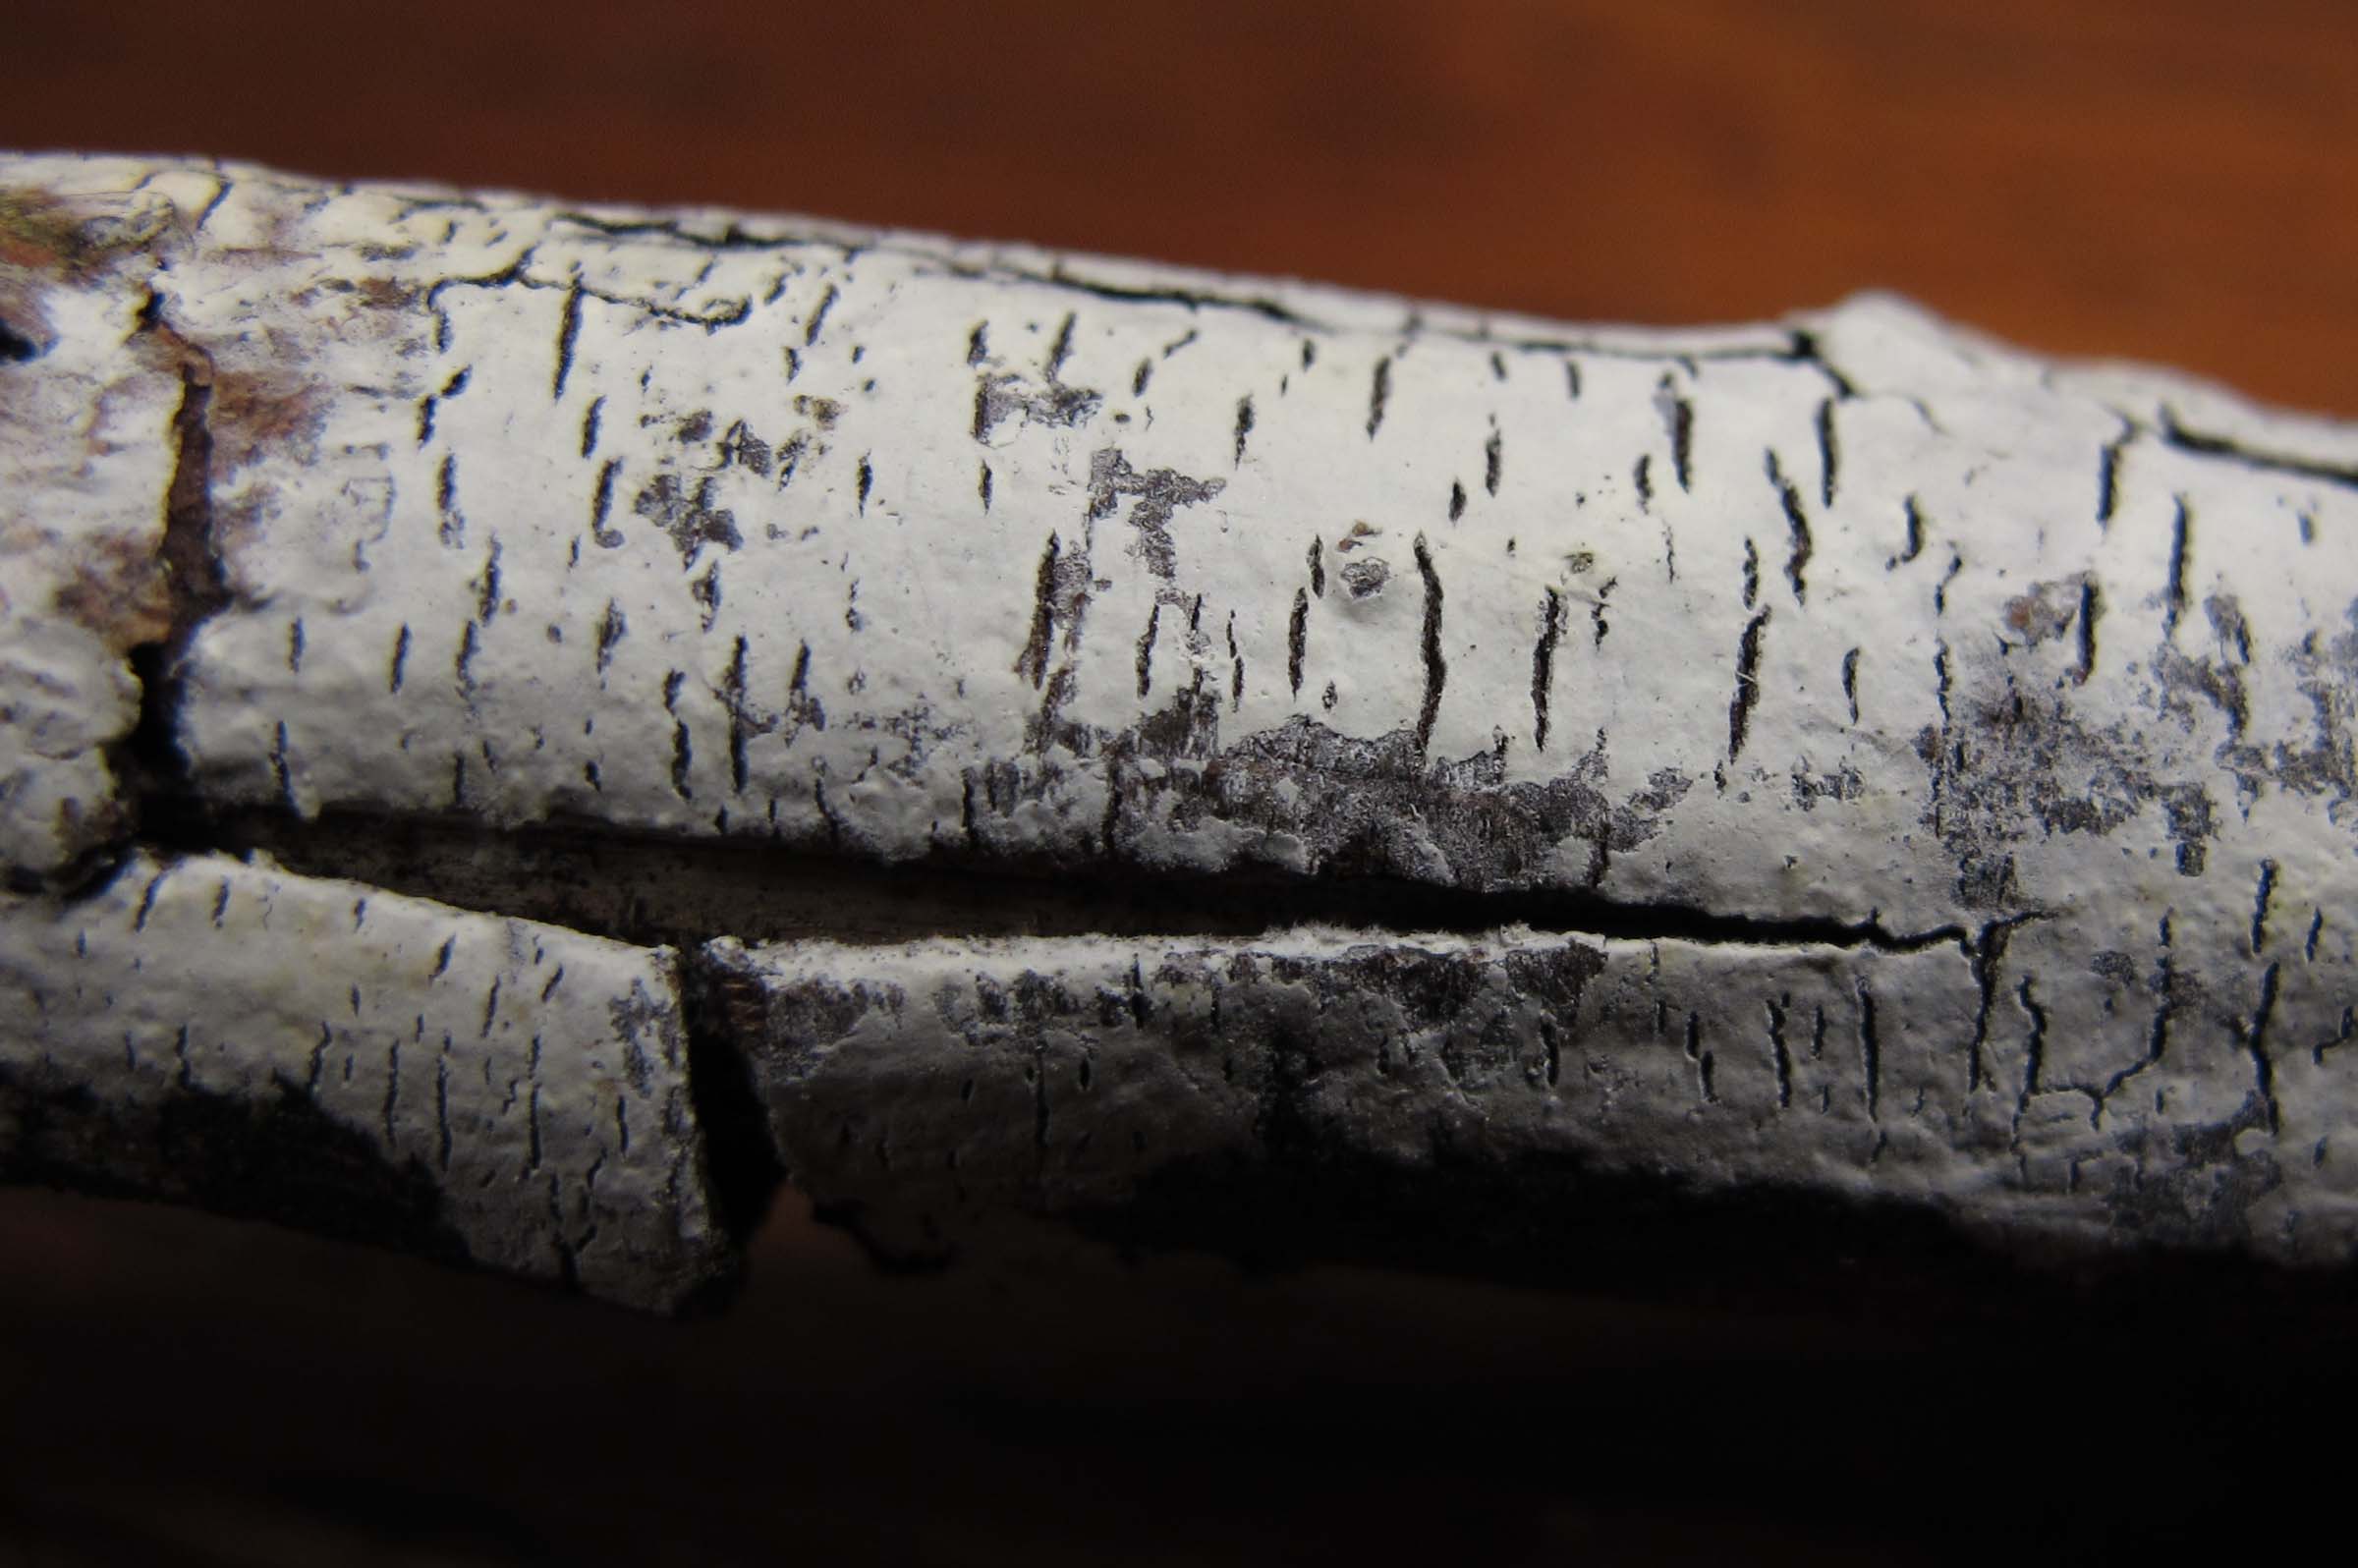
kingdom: Fungi
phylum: Basidiomycota
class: Agaricomycetes
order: Atheliales
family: Atheliaceae
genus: Melzericium
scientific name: Melzericium udicola
